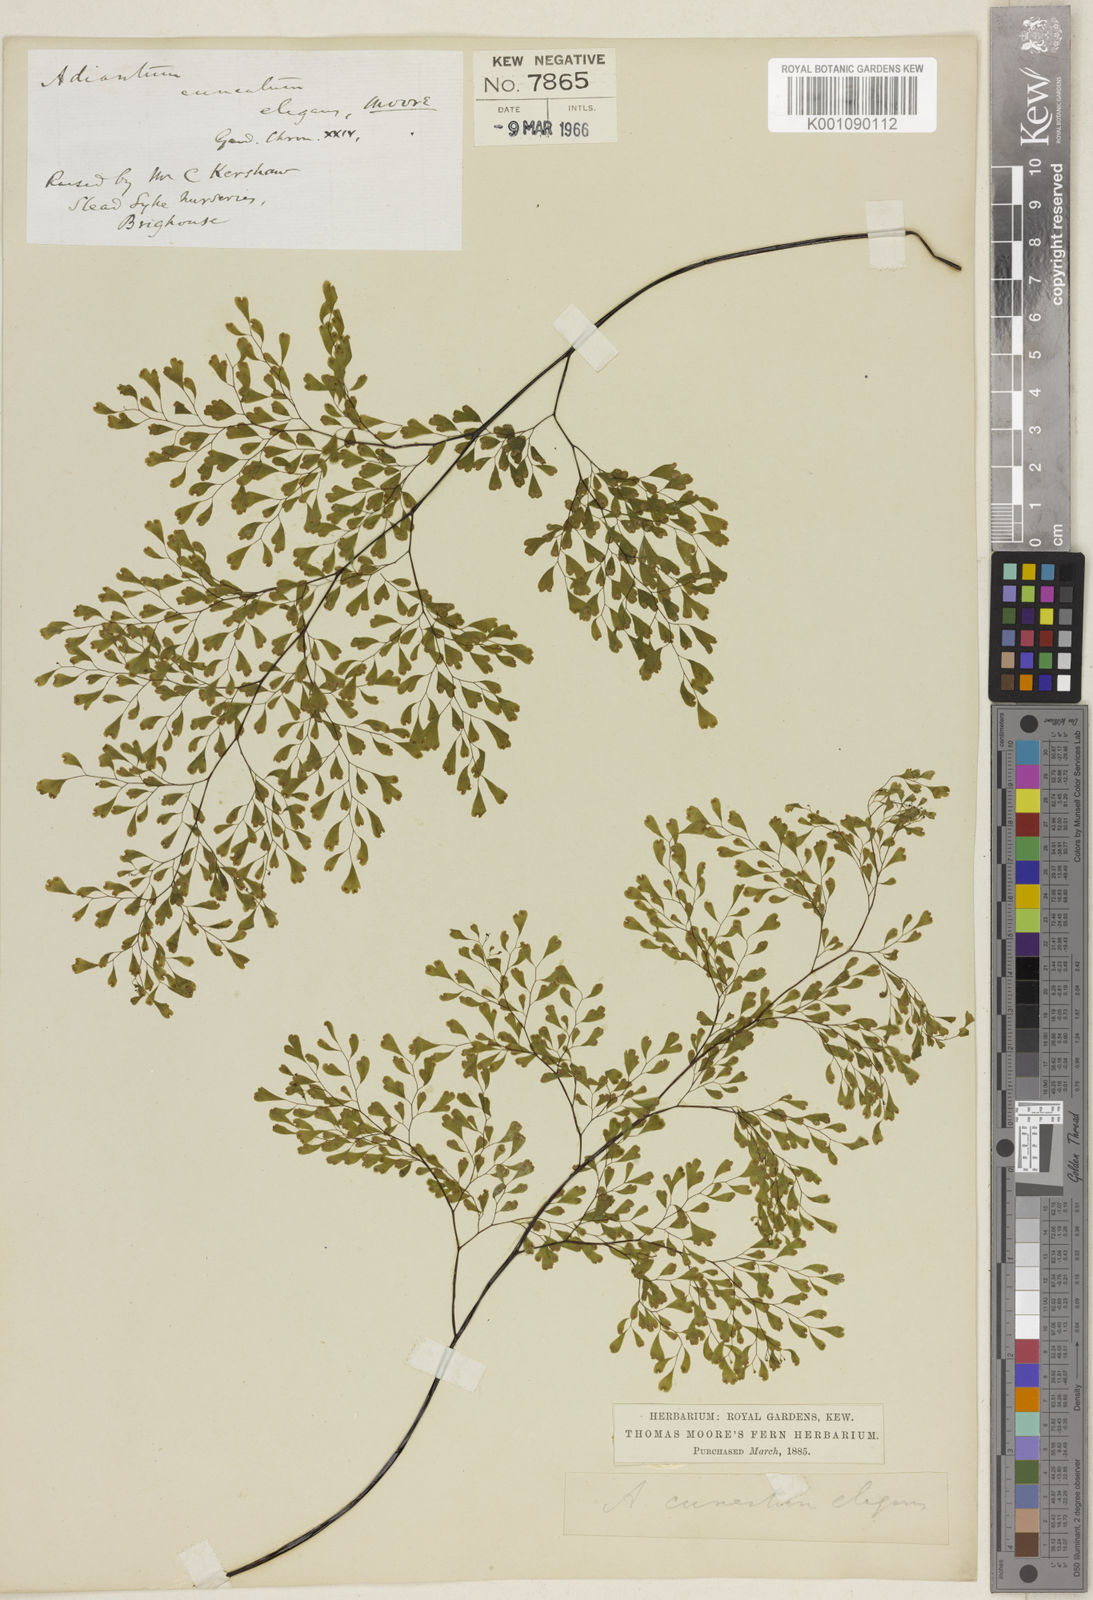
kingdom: Plantae
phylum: Tracheophyta
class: Polypodiopsida
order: Polypodiales
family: Pteridaceae
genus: Adiantum
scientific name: Adiantum raddianum
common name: Delta maidenhair fern
